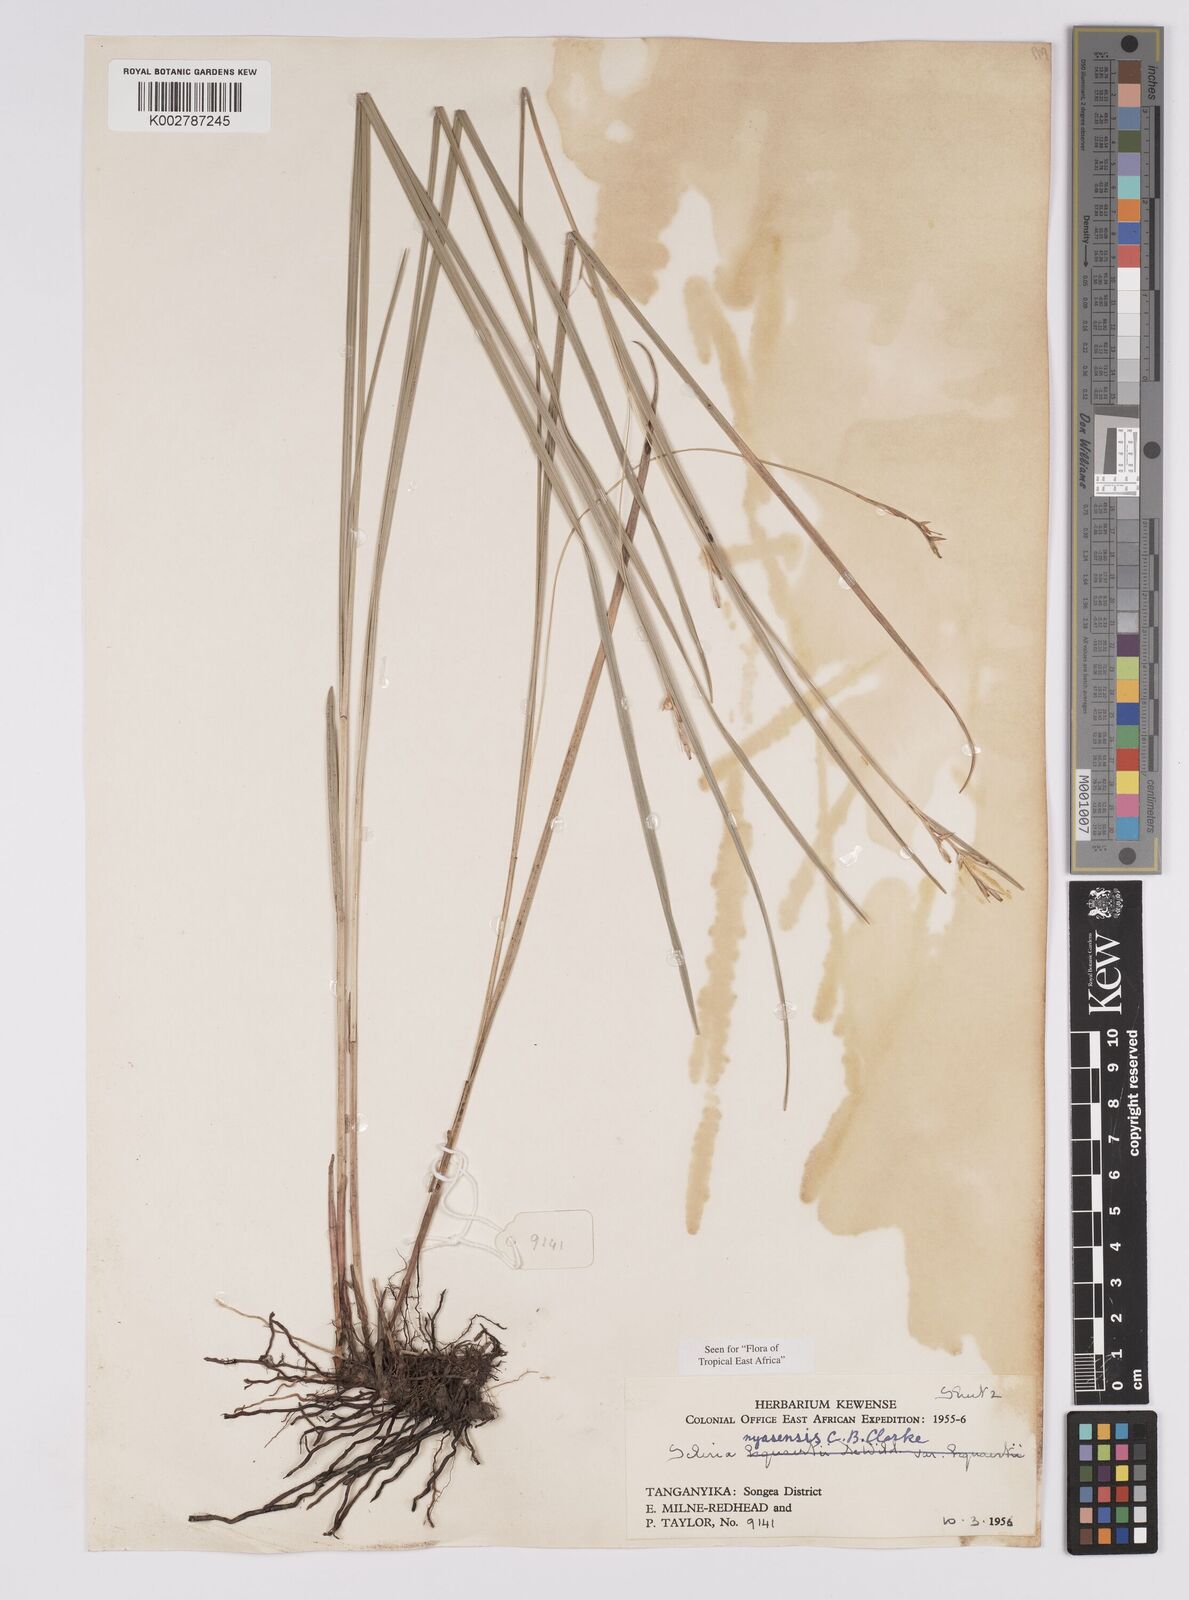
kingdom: Plantae
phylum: Tracheophyta
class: Liliopsida
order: Poales
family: Cyperaceae
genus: Scleria
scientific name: Scleria nyasensis
